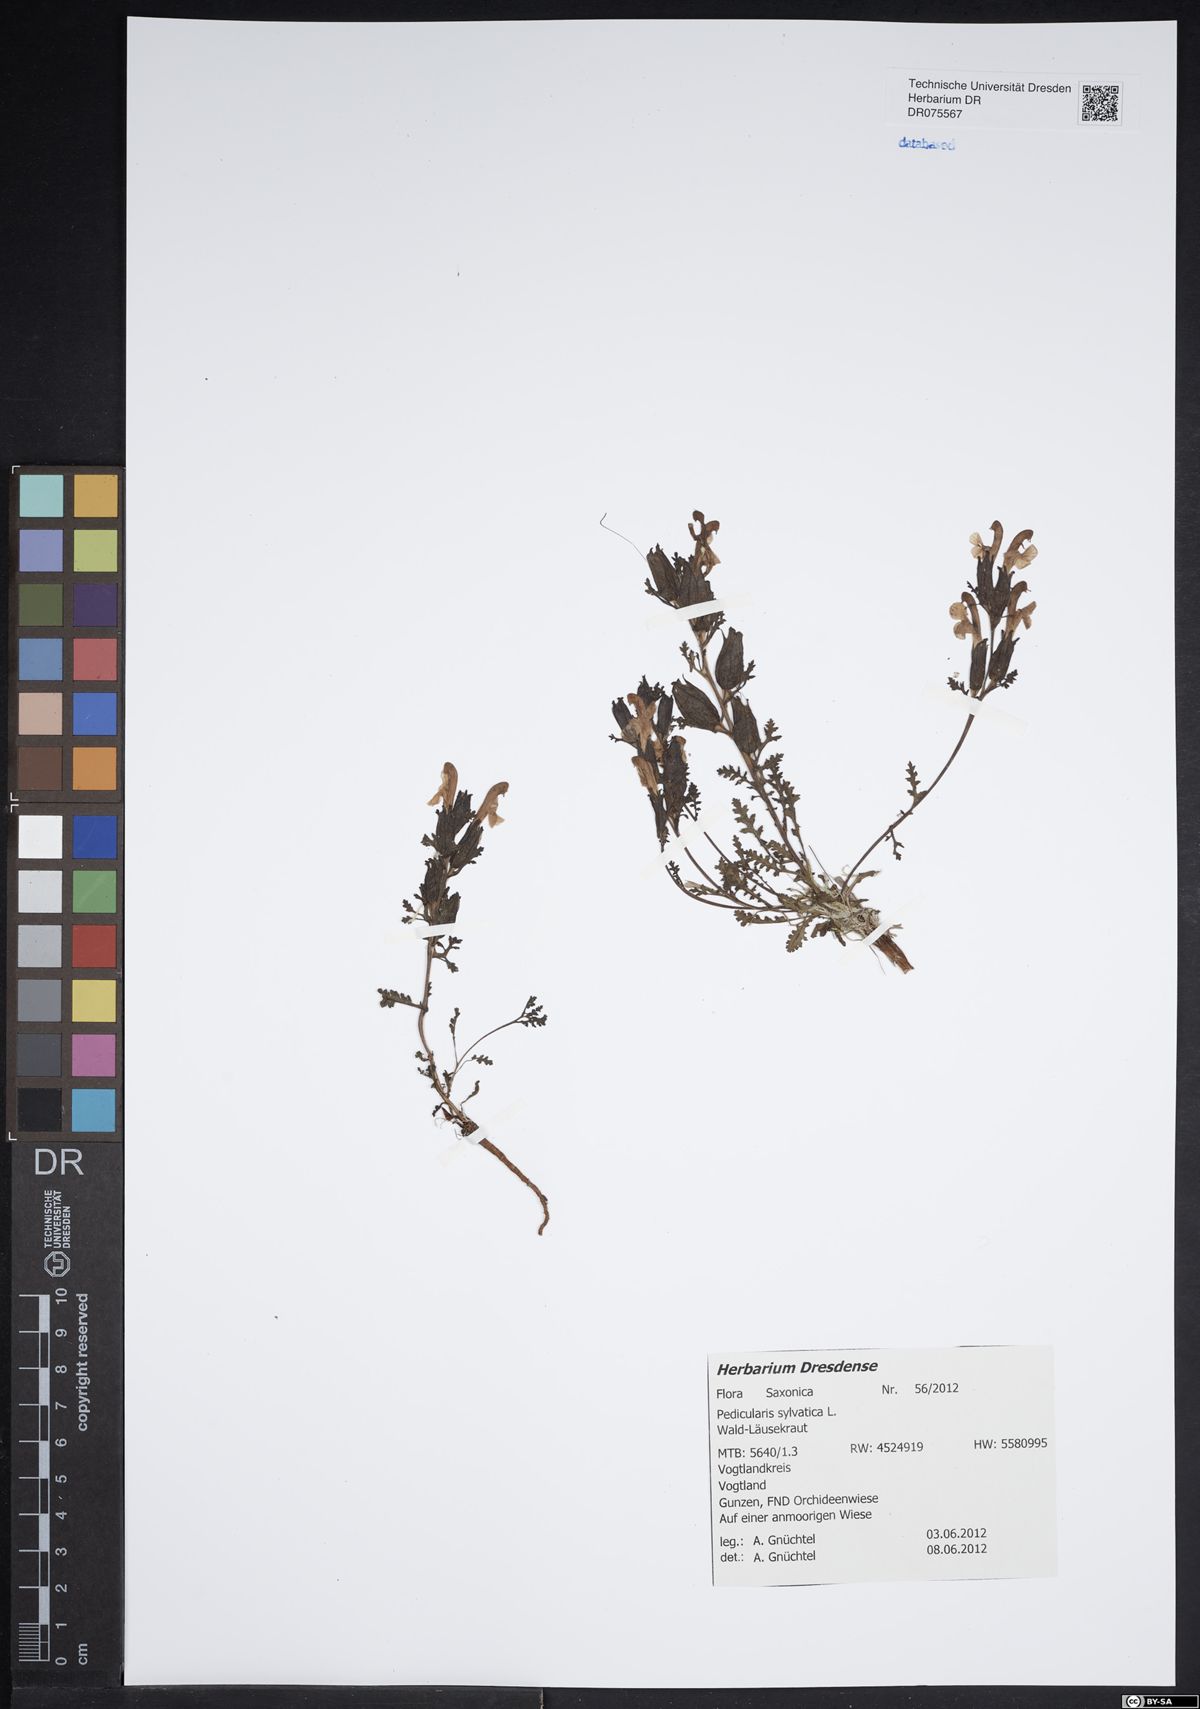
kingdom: Plantae
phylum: Tracheophyta
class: Magnoliopsida
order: Lamiales
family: Orobanchaceae
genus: Pedicularis
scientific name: Pedicularis sylvatica
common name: Lousewort
